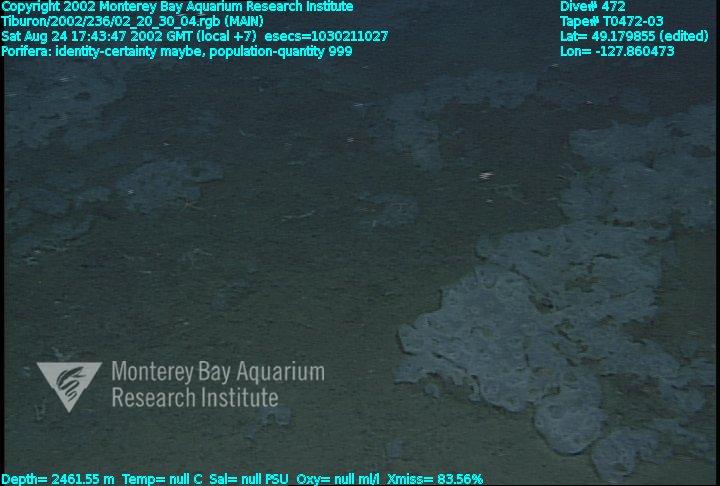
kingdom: Animalia
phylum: Porifera
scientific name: Porifera
